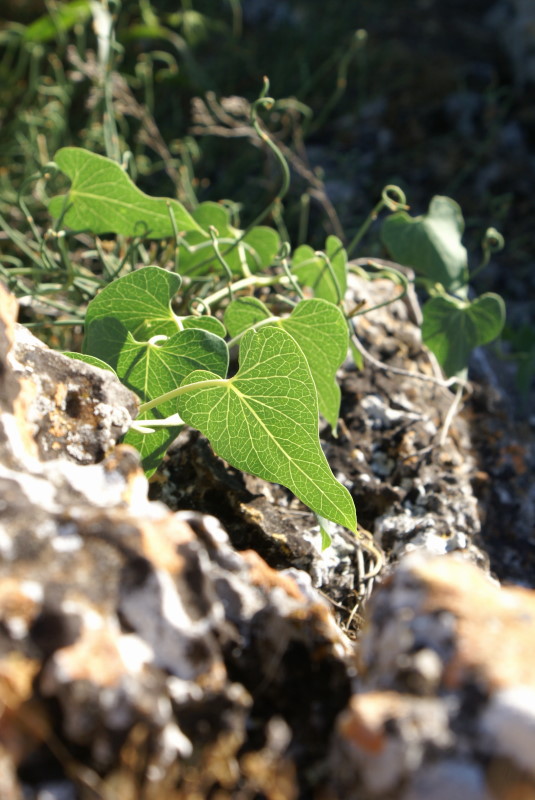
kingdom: Plantae
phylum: Tracheophyta
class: Magnoliopsida
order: Gentianales
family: Apocynaceae
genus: Cynanchum
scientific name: Cynanchum acutum
